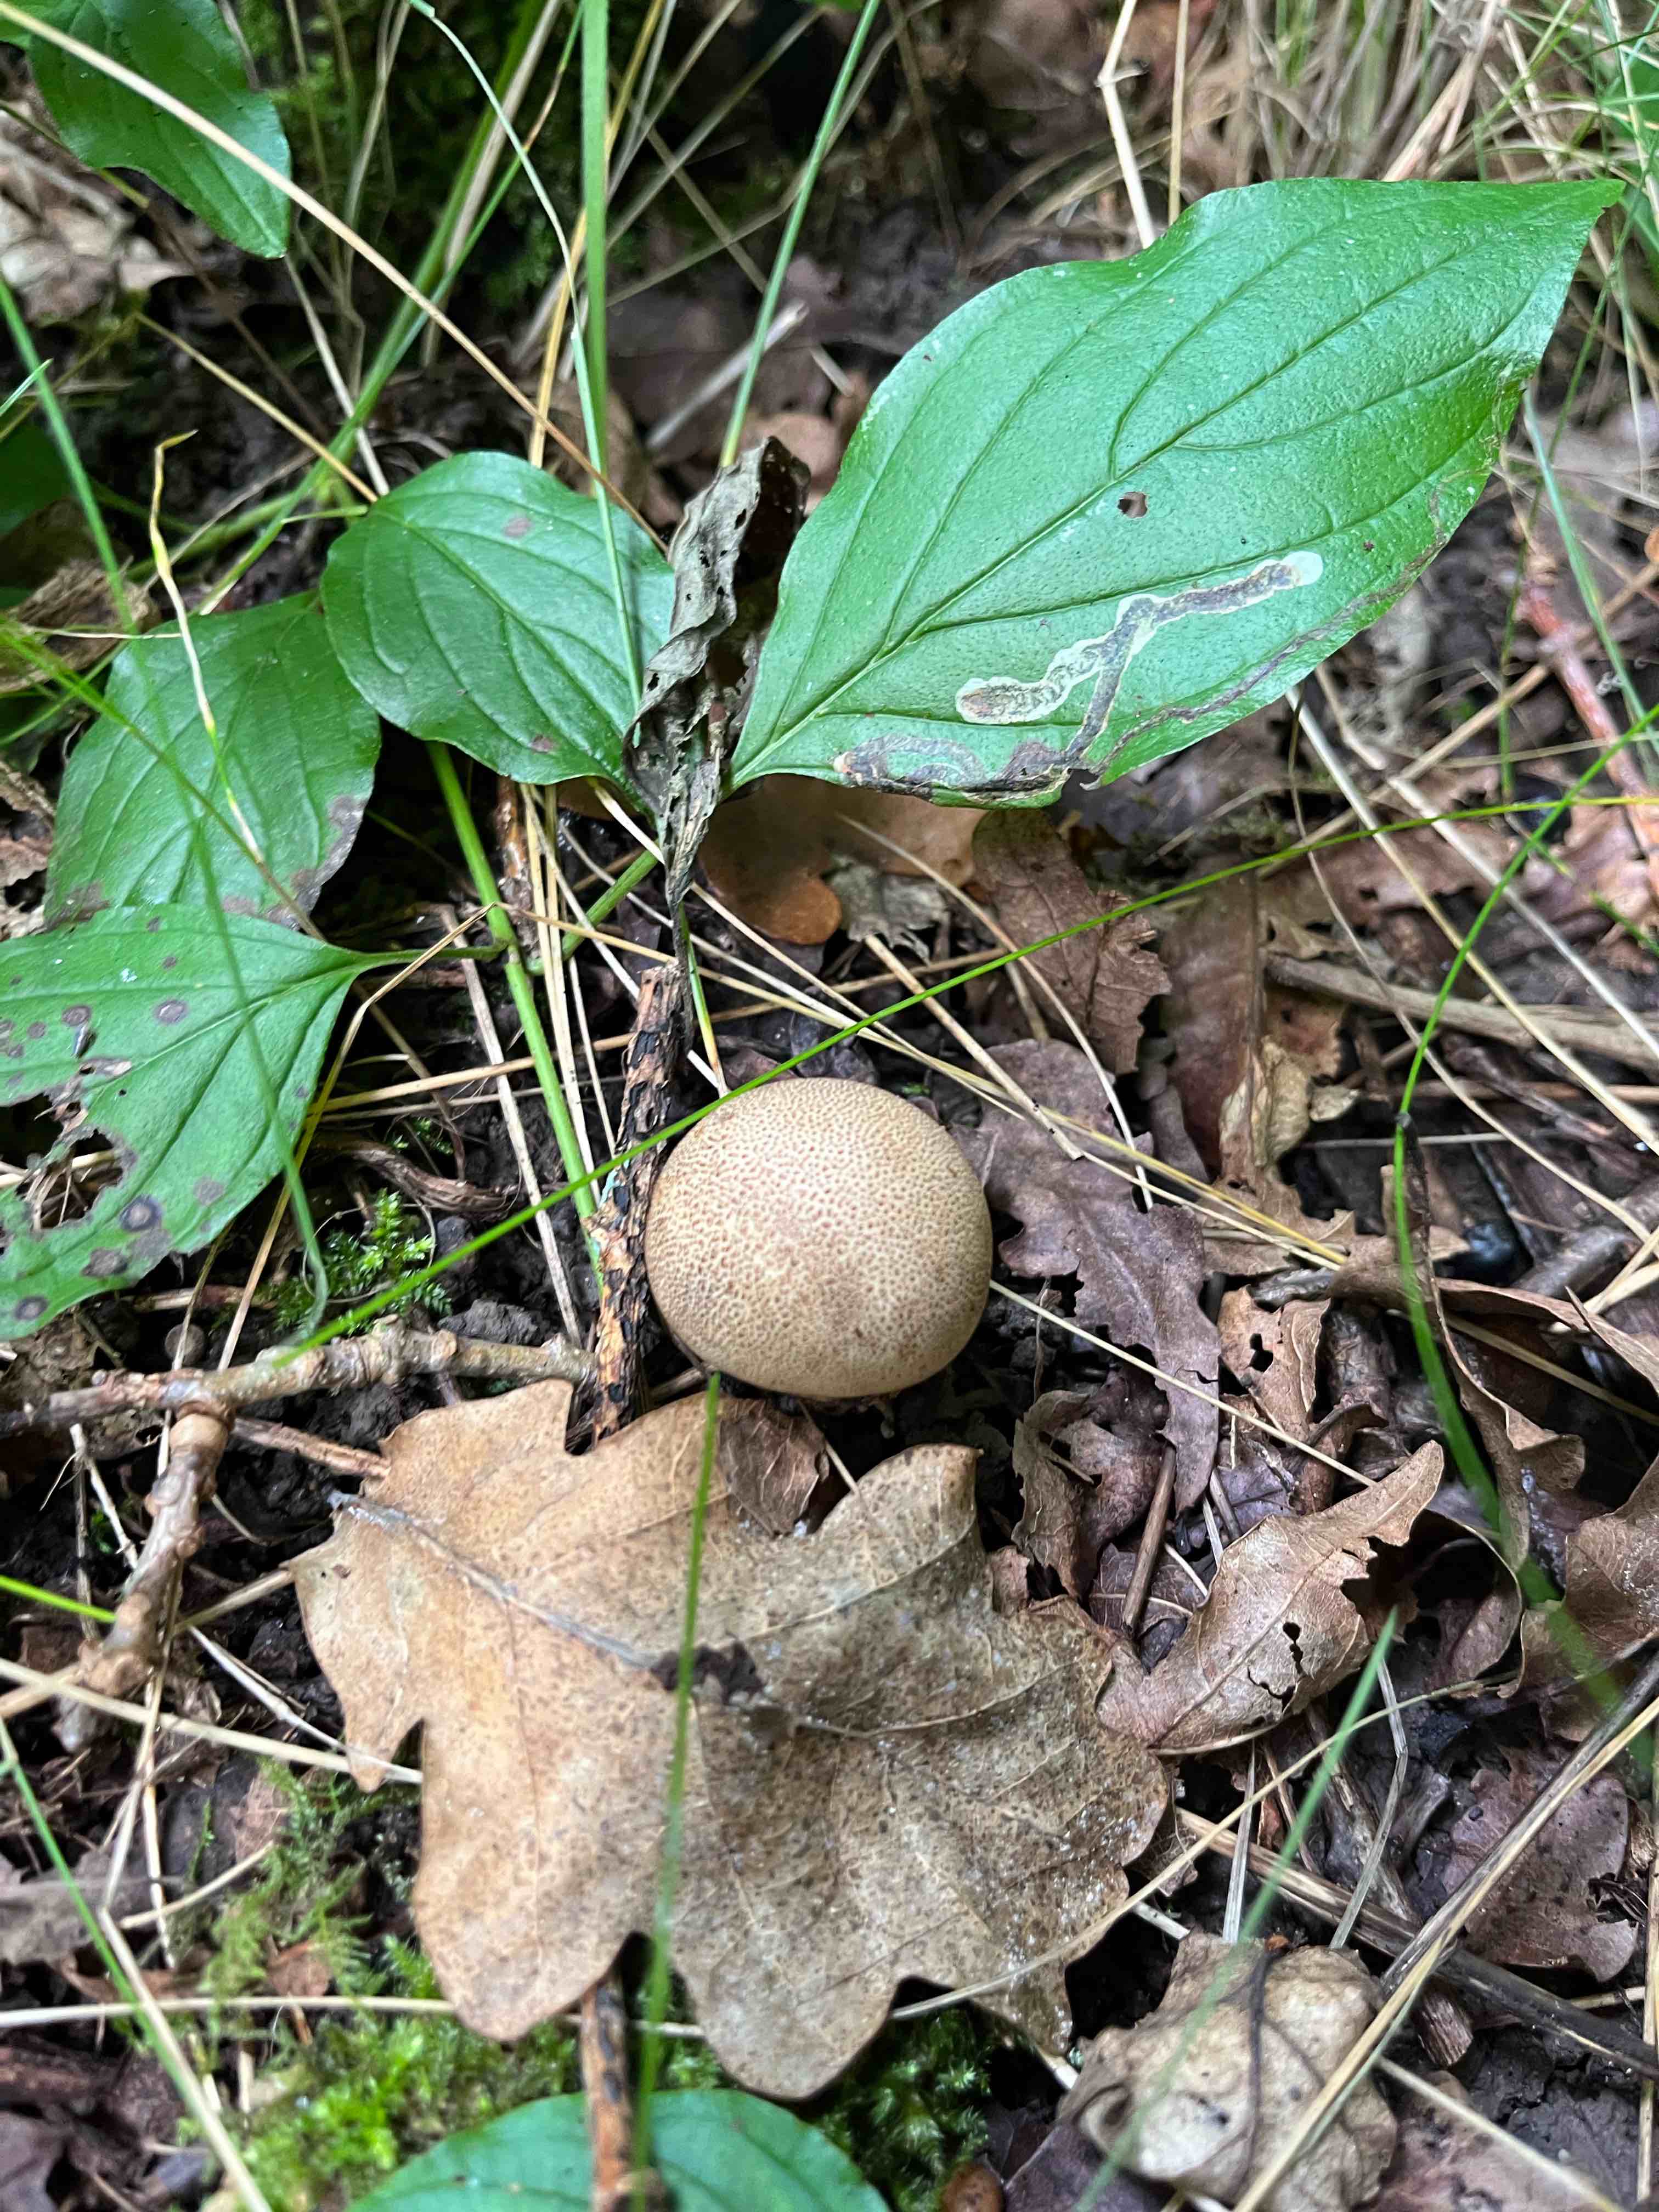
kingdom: Fungi
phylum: Basidiomycota
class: Agaricomycetes
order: Boletales
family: Sclerodermataceae
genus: Scleroderma
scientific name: Scleroderma verrucosum
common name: stilket bruskbold
